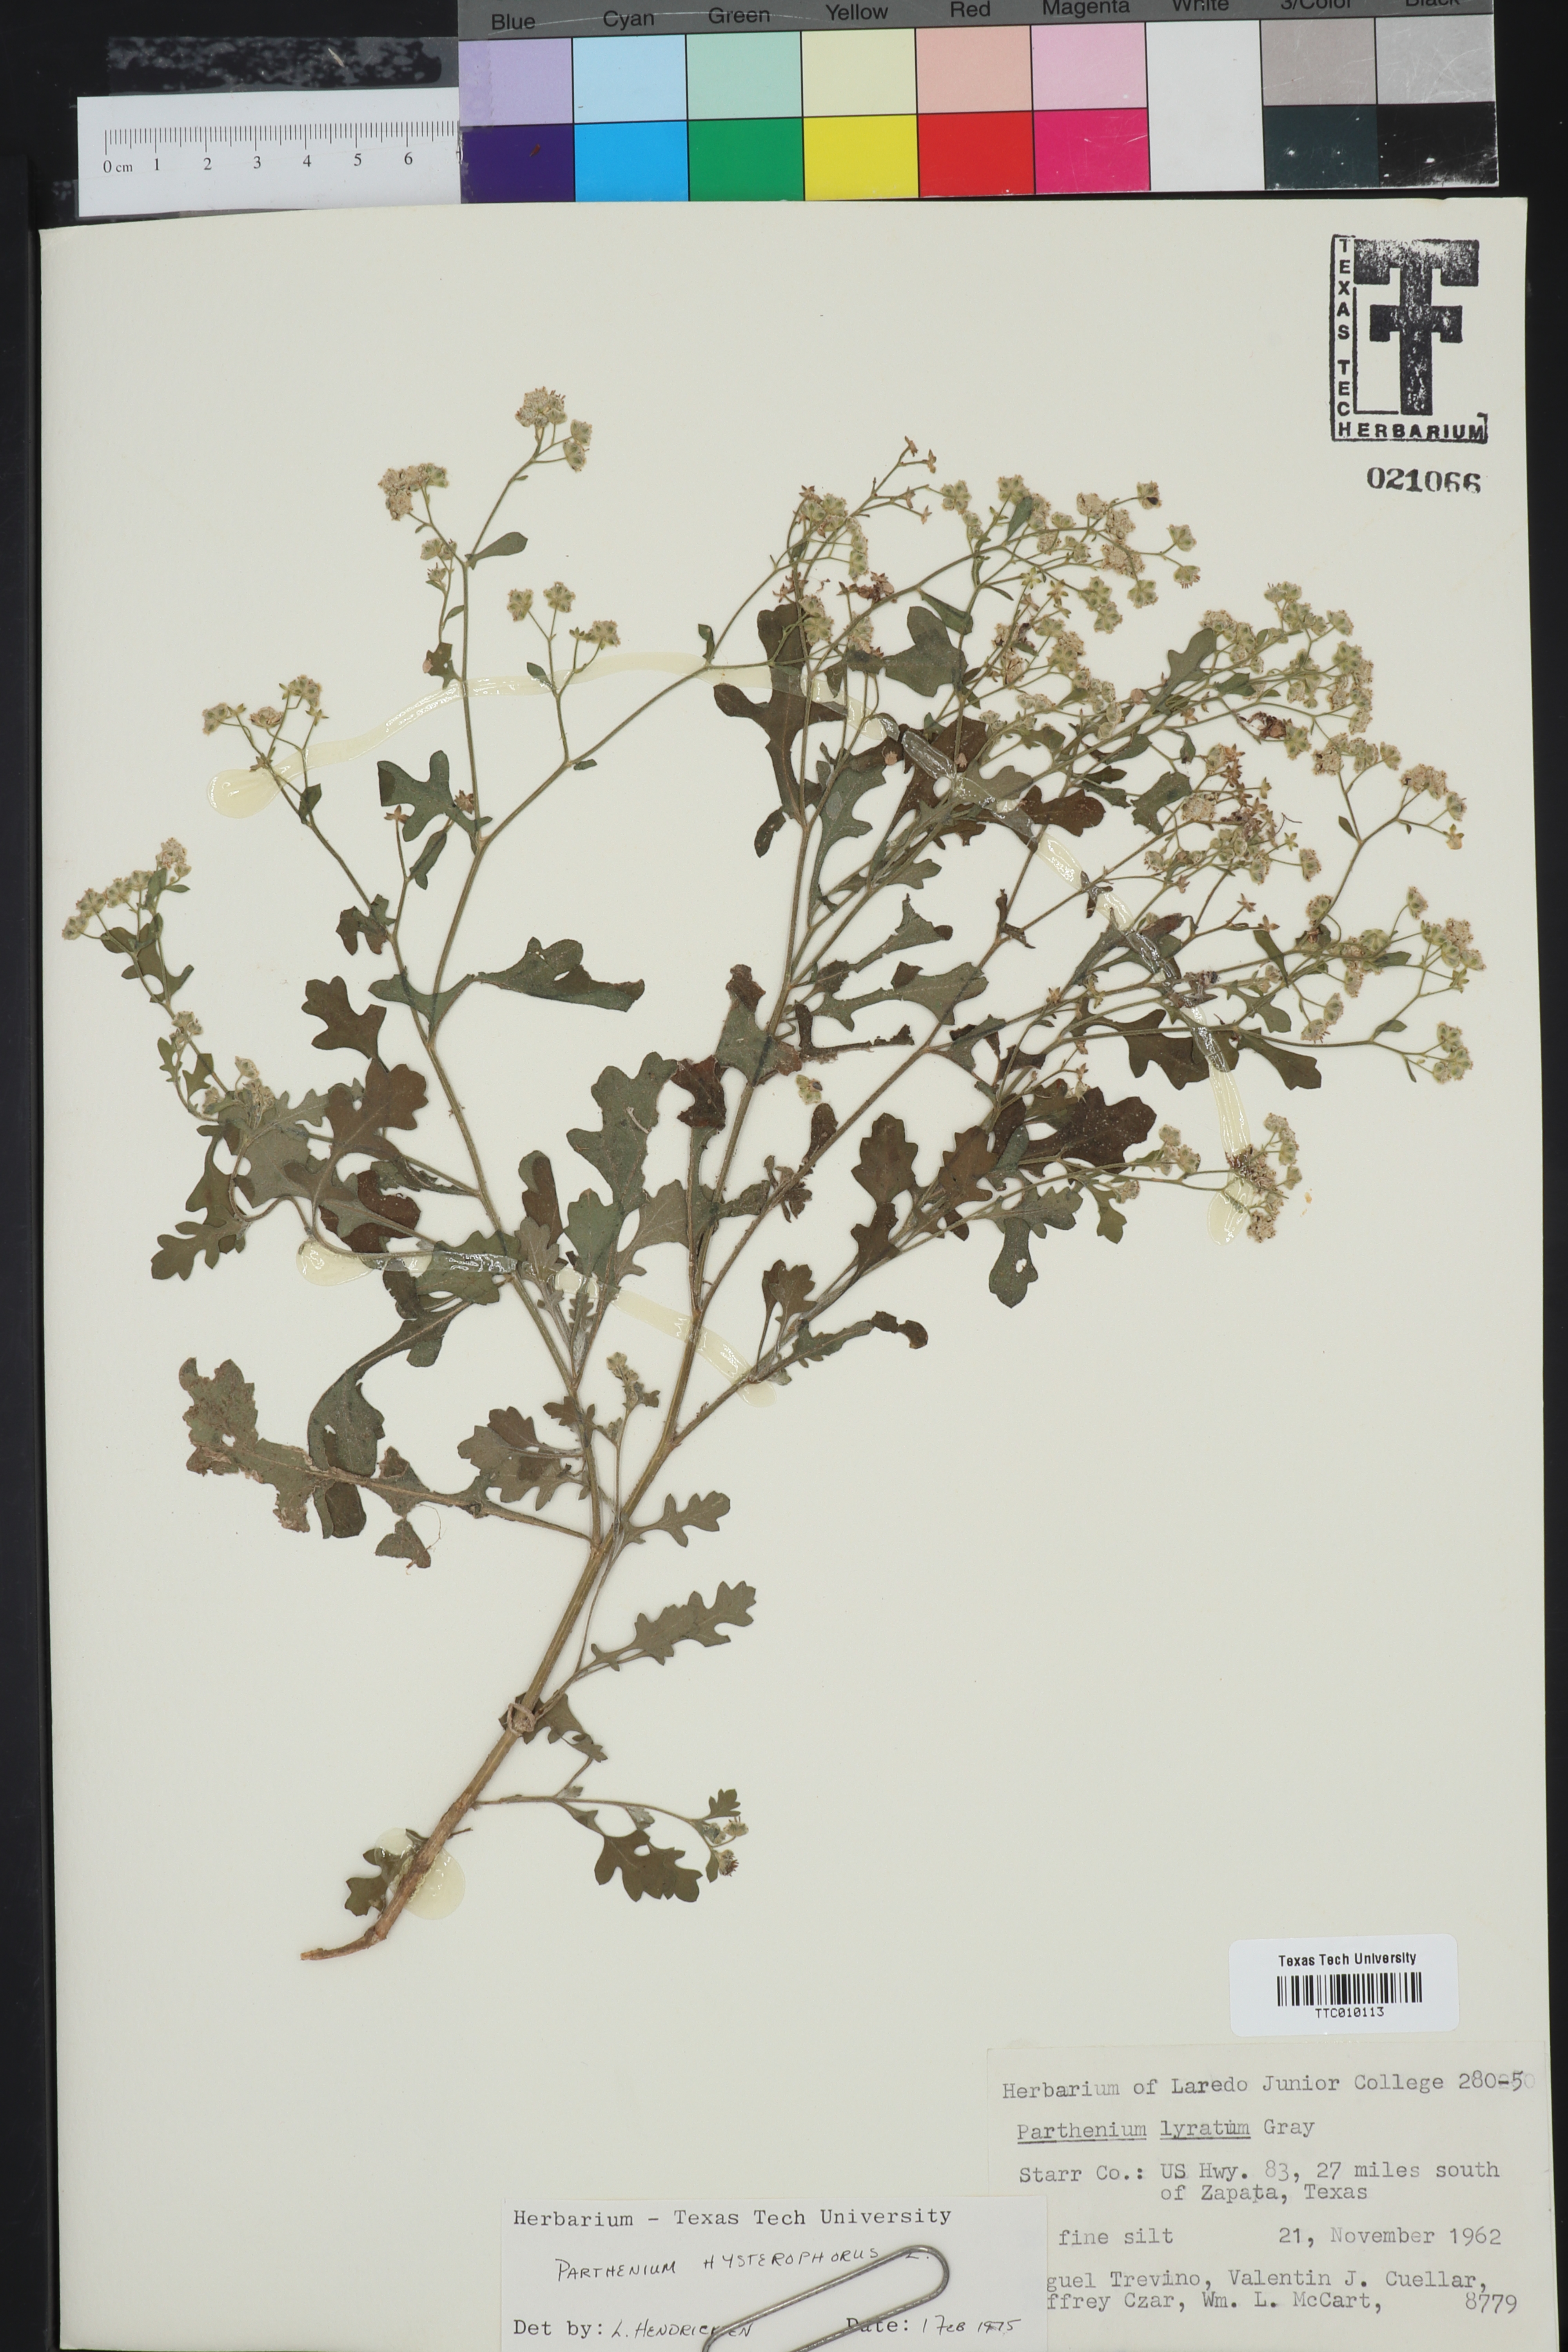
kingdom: Plantae
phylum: Tracheophyta
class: Magnoliopsida
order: Asterales
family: Asteraceae
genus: Parthenium
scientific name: Parthenium hysterophorus
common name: Santa maria feverfew
